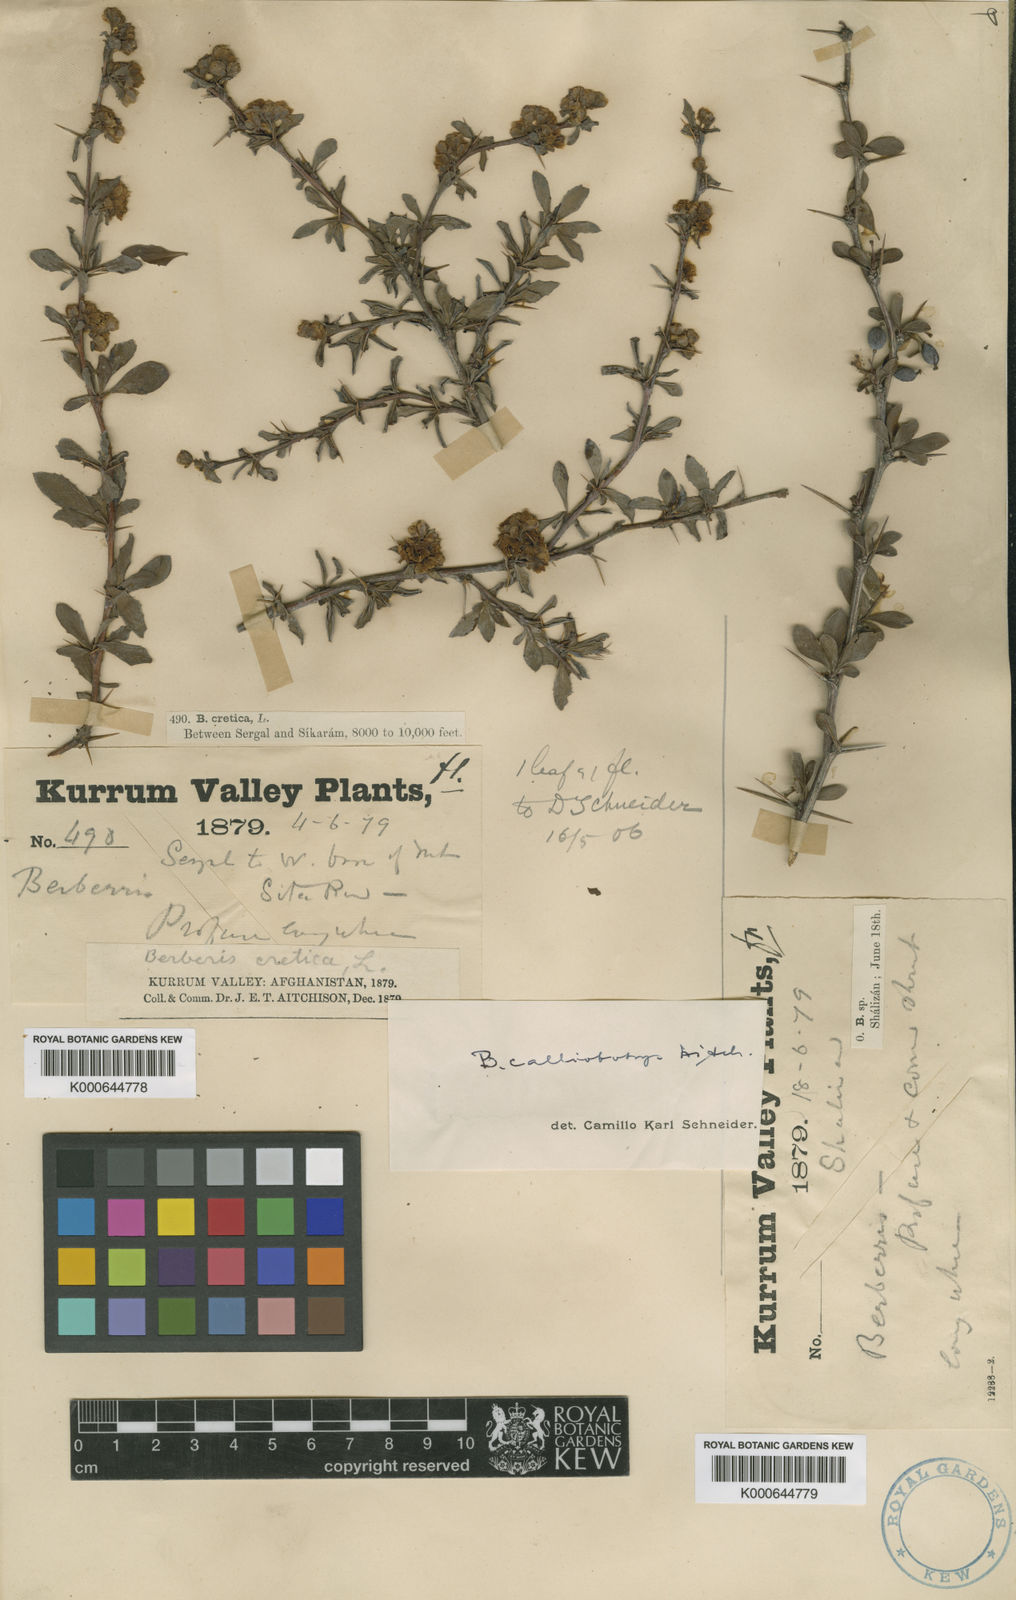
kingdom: Plantae
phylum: Tracheophyta
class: Magnoliopsida
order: Ranunculales
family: Berberidaceae
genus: Berberis
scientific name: Berberis calliobotrys
